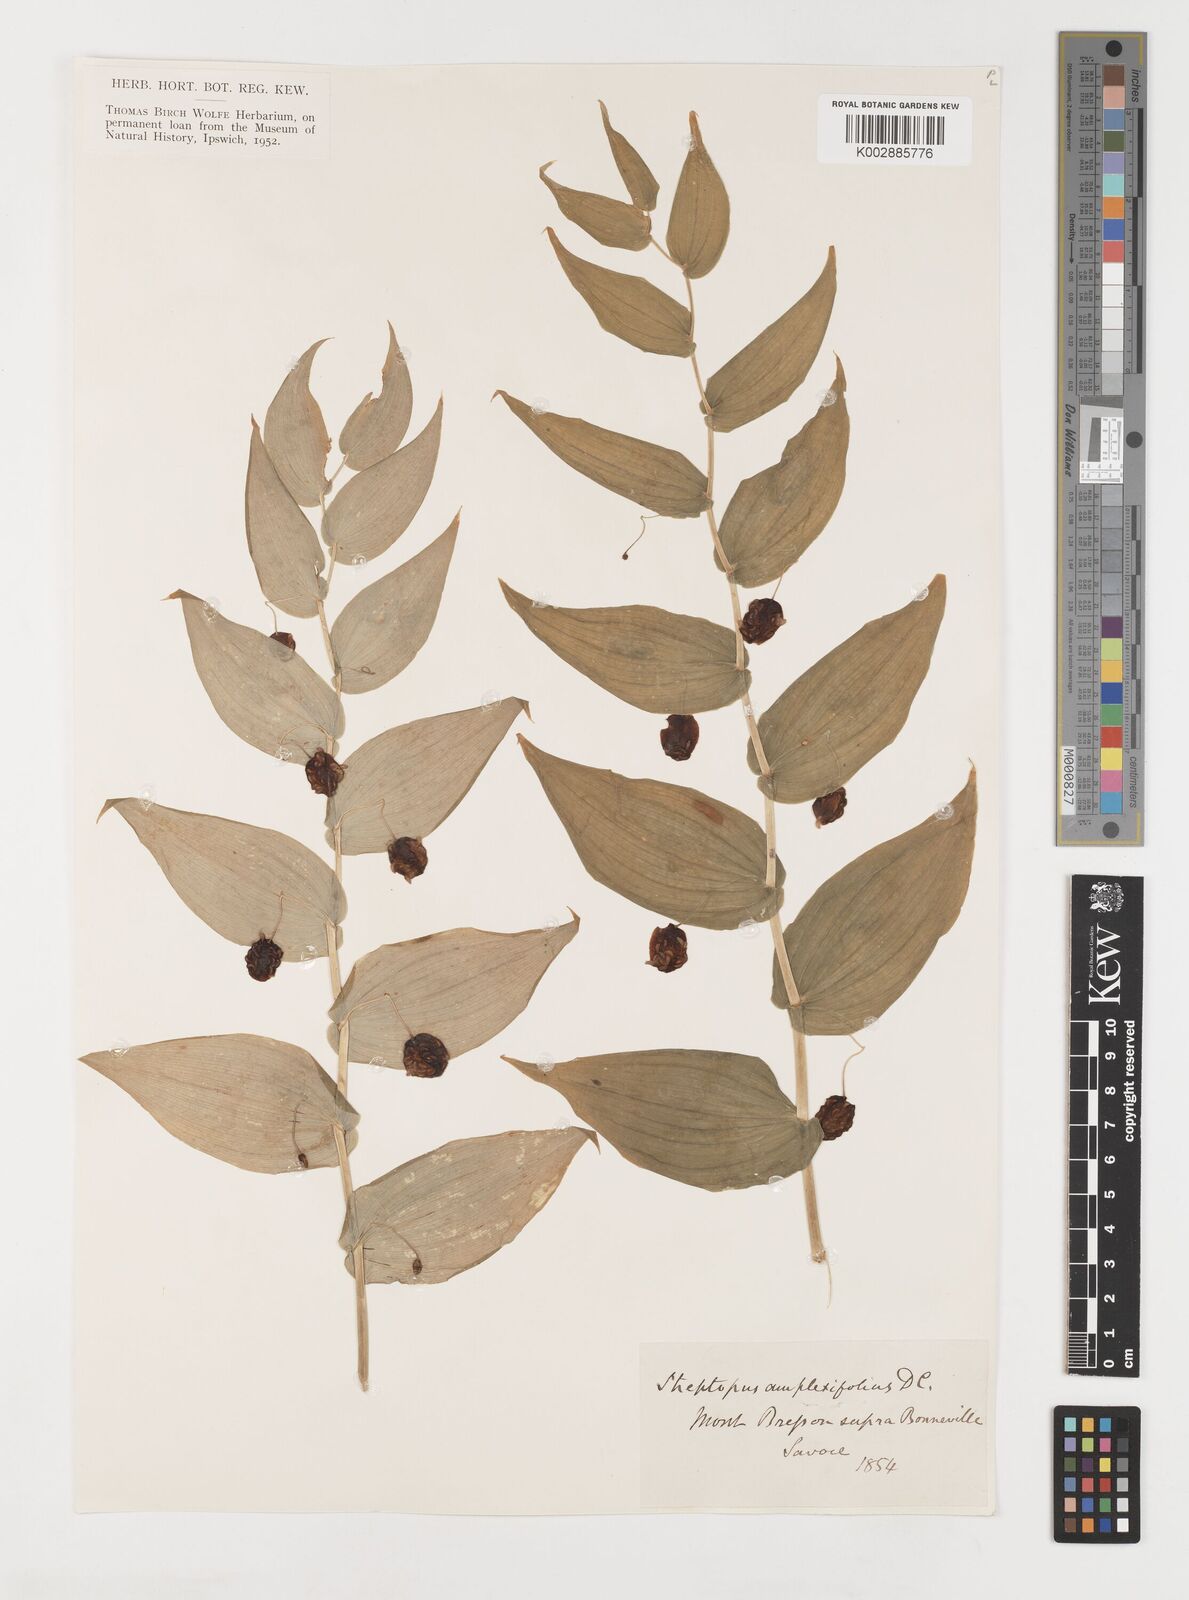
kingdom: Plantae
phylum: Tracheophyta
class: Liliopsida
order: Liliales
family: Liliaceae
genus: Streptopus
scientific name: Streptopus amplexifolius
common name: Clasp twisted stalk
